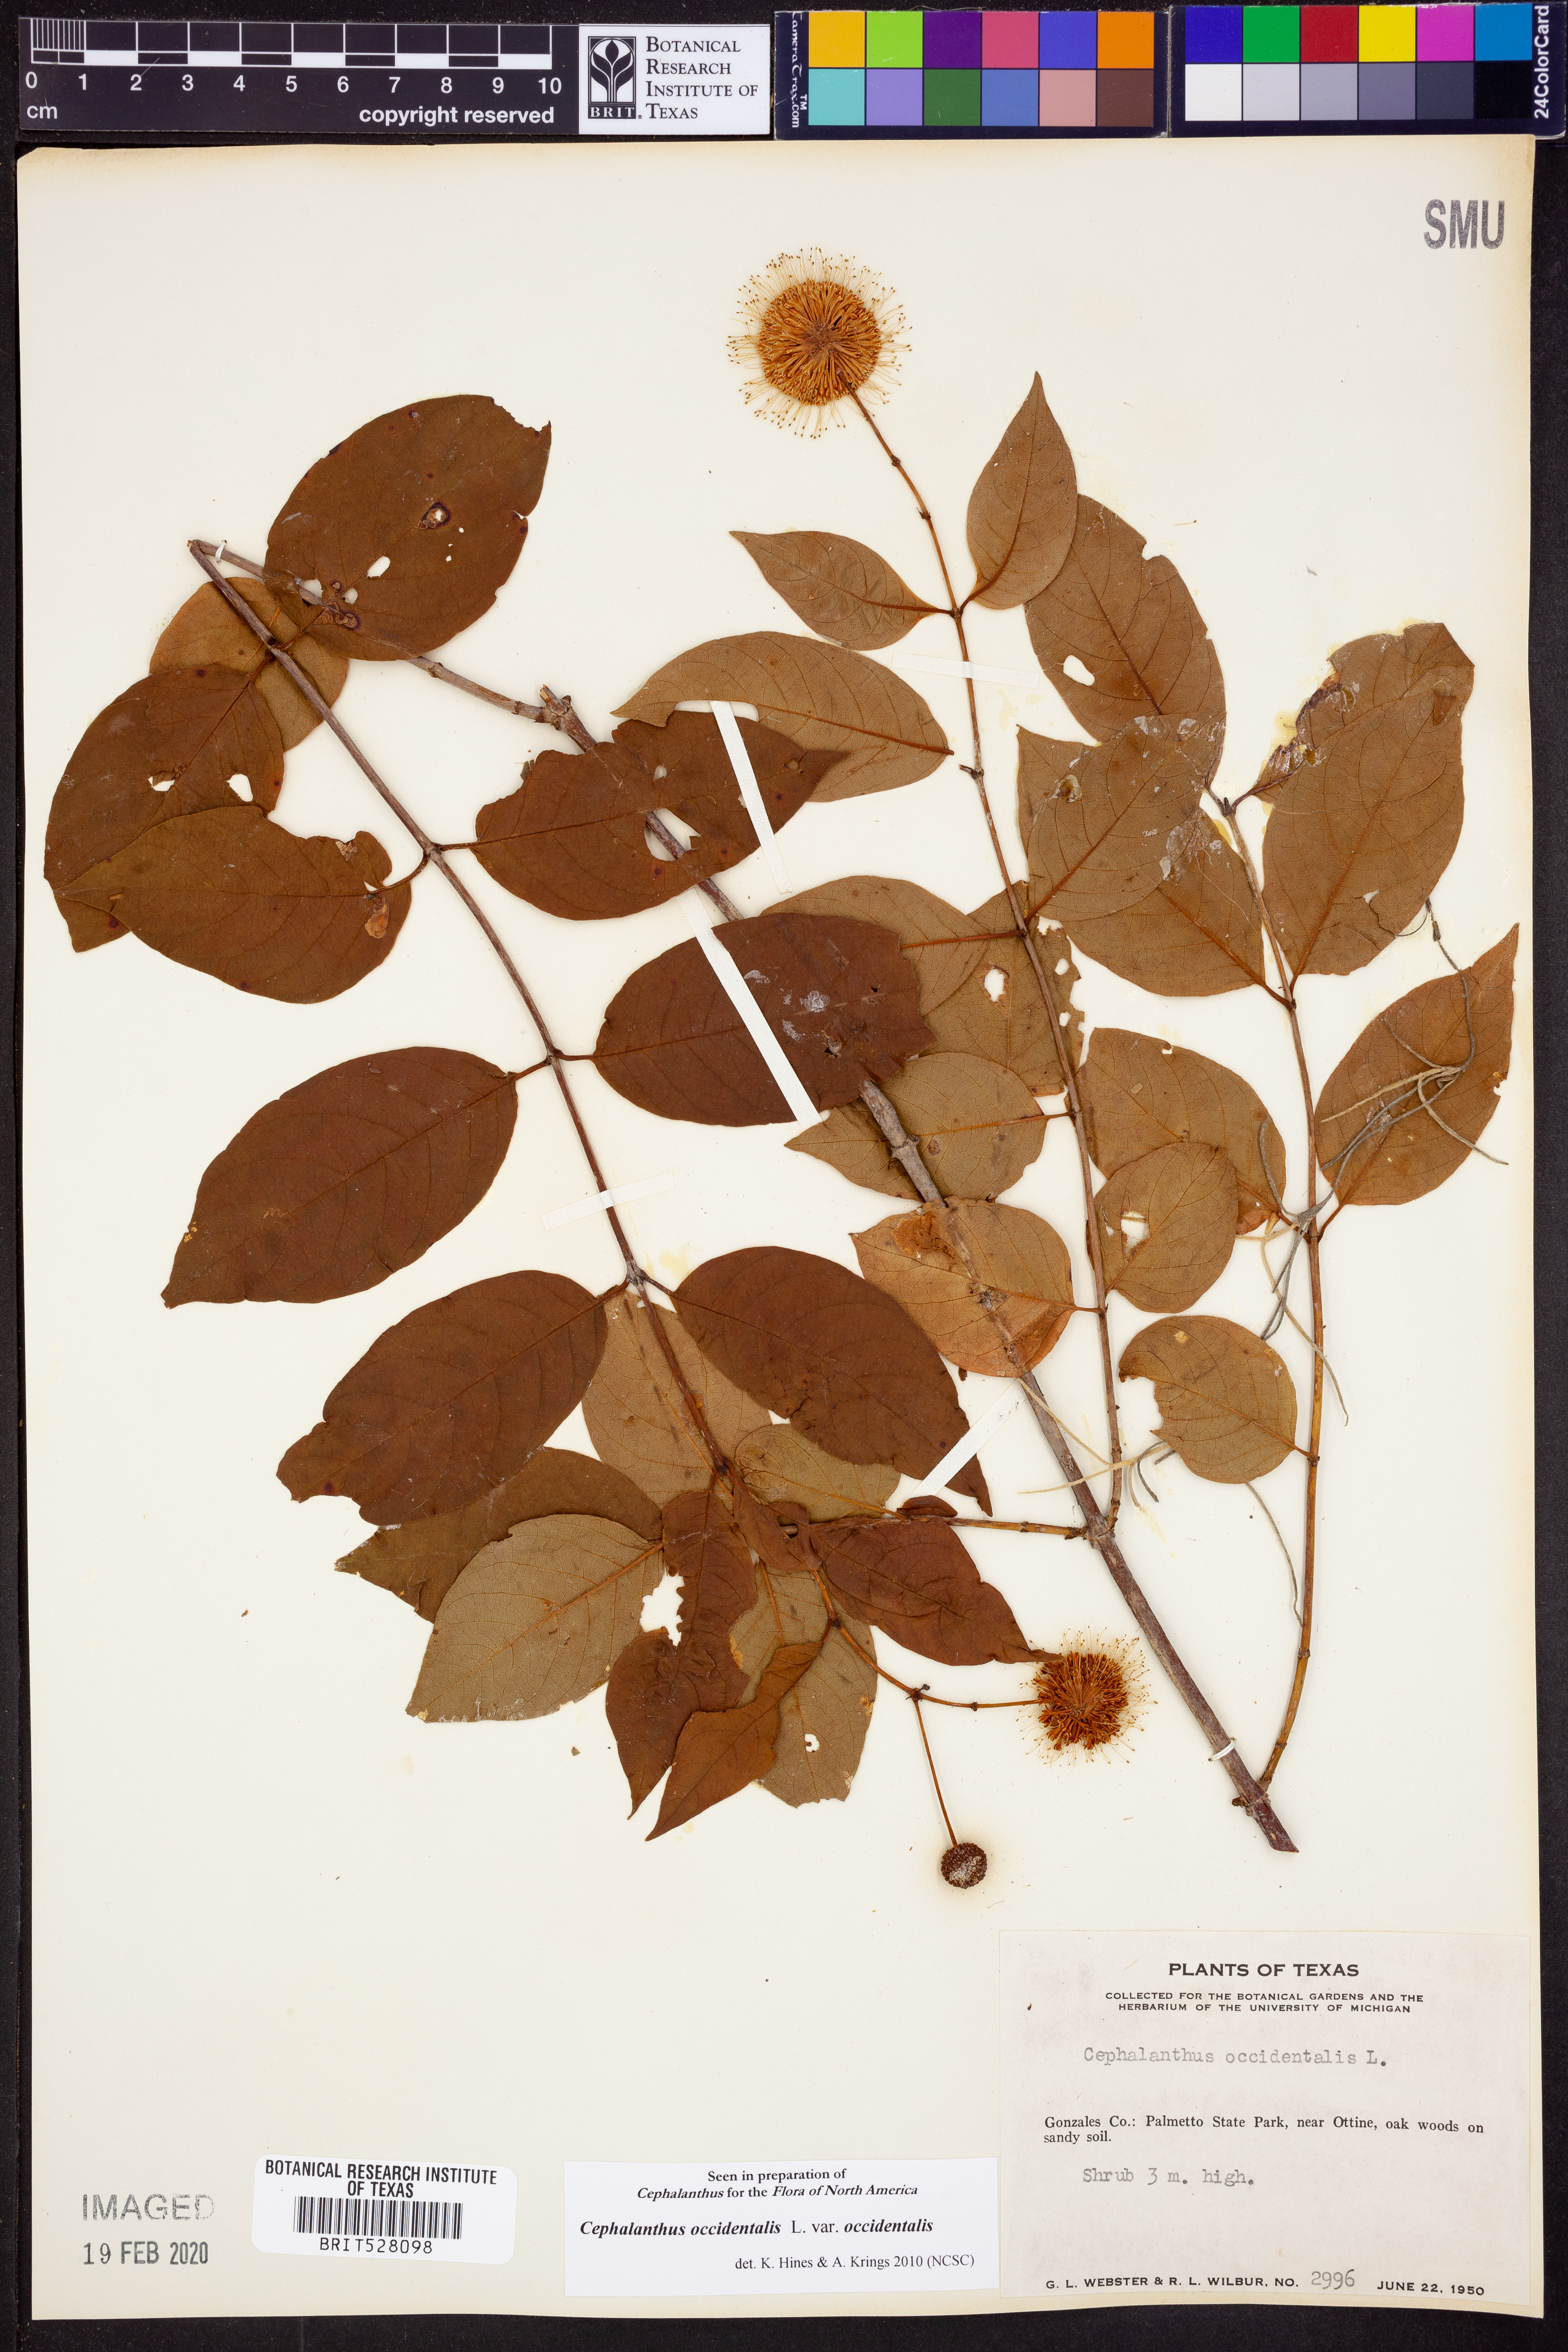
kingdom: Plantae
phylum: Tracheophyta
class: Magnoliopsida
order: Gentianales
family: Rubiaceae
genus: Cephalanthus
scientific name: Cephalanthus occidentalis
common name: Button-willow
